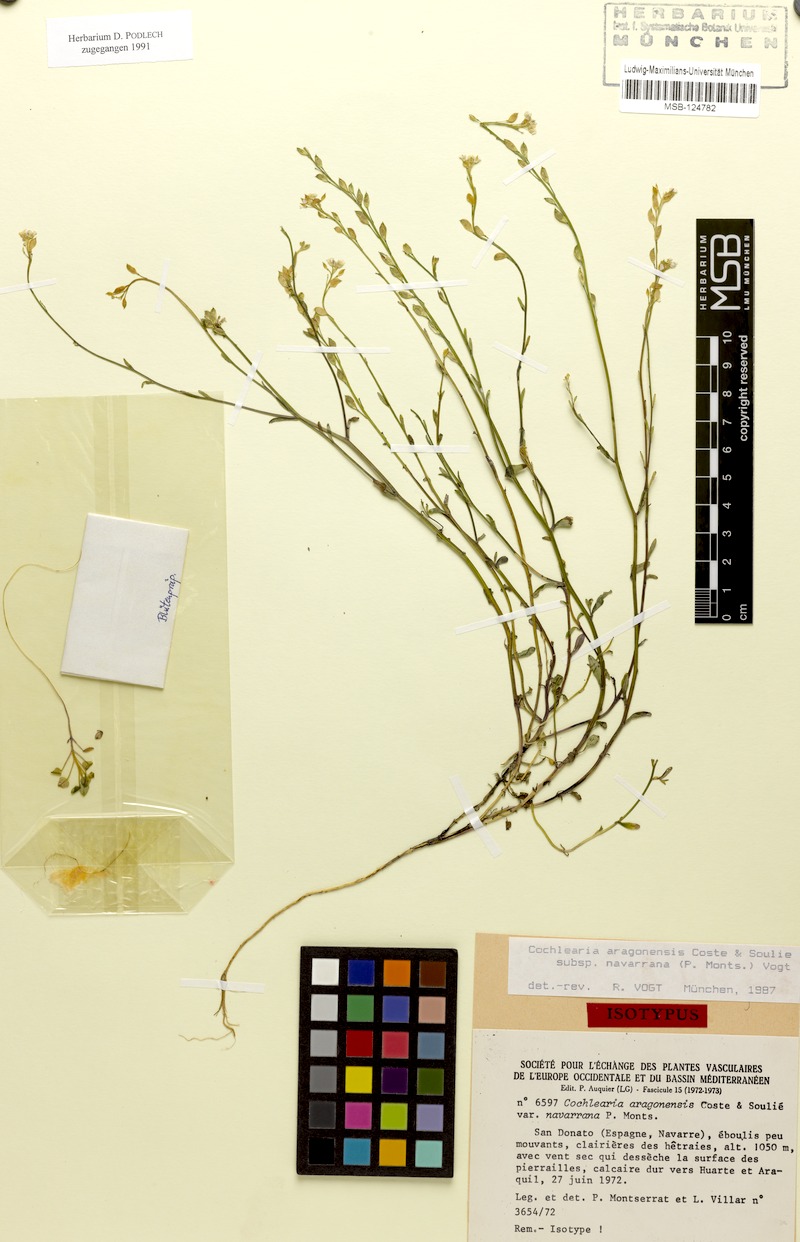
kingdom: Plantae
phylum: Tracheophyta
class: Magnoliopsida
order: Brassicales
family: Brassicaceae
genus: Ionopsidium
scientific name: Ionopsidium aragonensis
